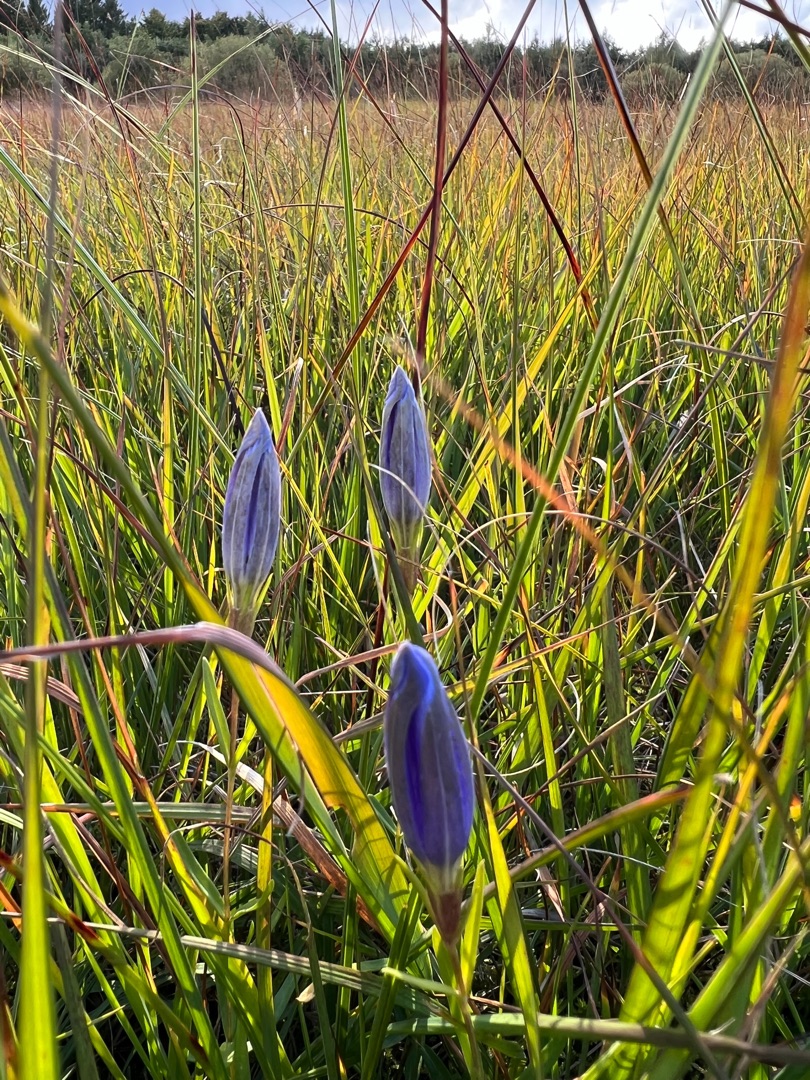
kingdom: Plantae
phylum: Tracheophyta
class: Magnoliopsida
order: Gentianales
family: Gentianaceae
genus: Gentiana
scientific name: Gentiana pneumonanthe
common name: Klokke-ensian
